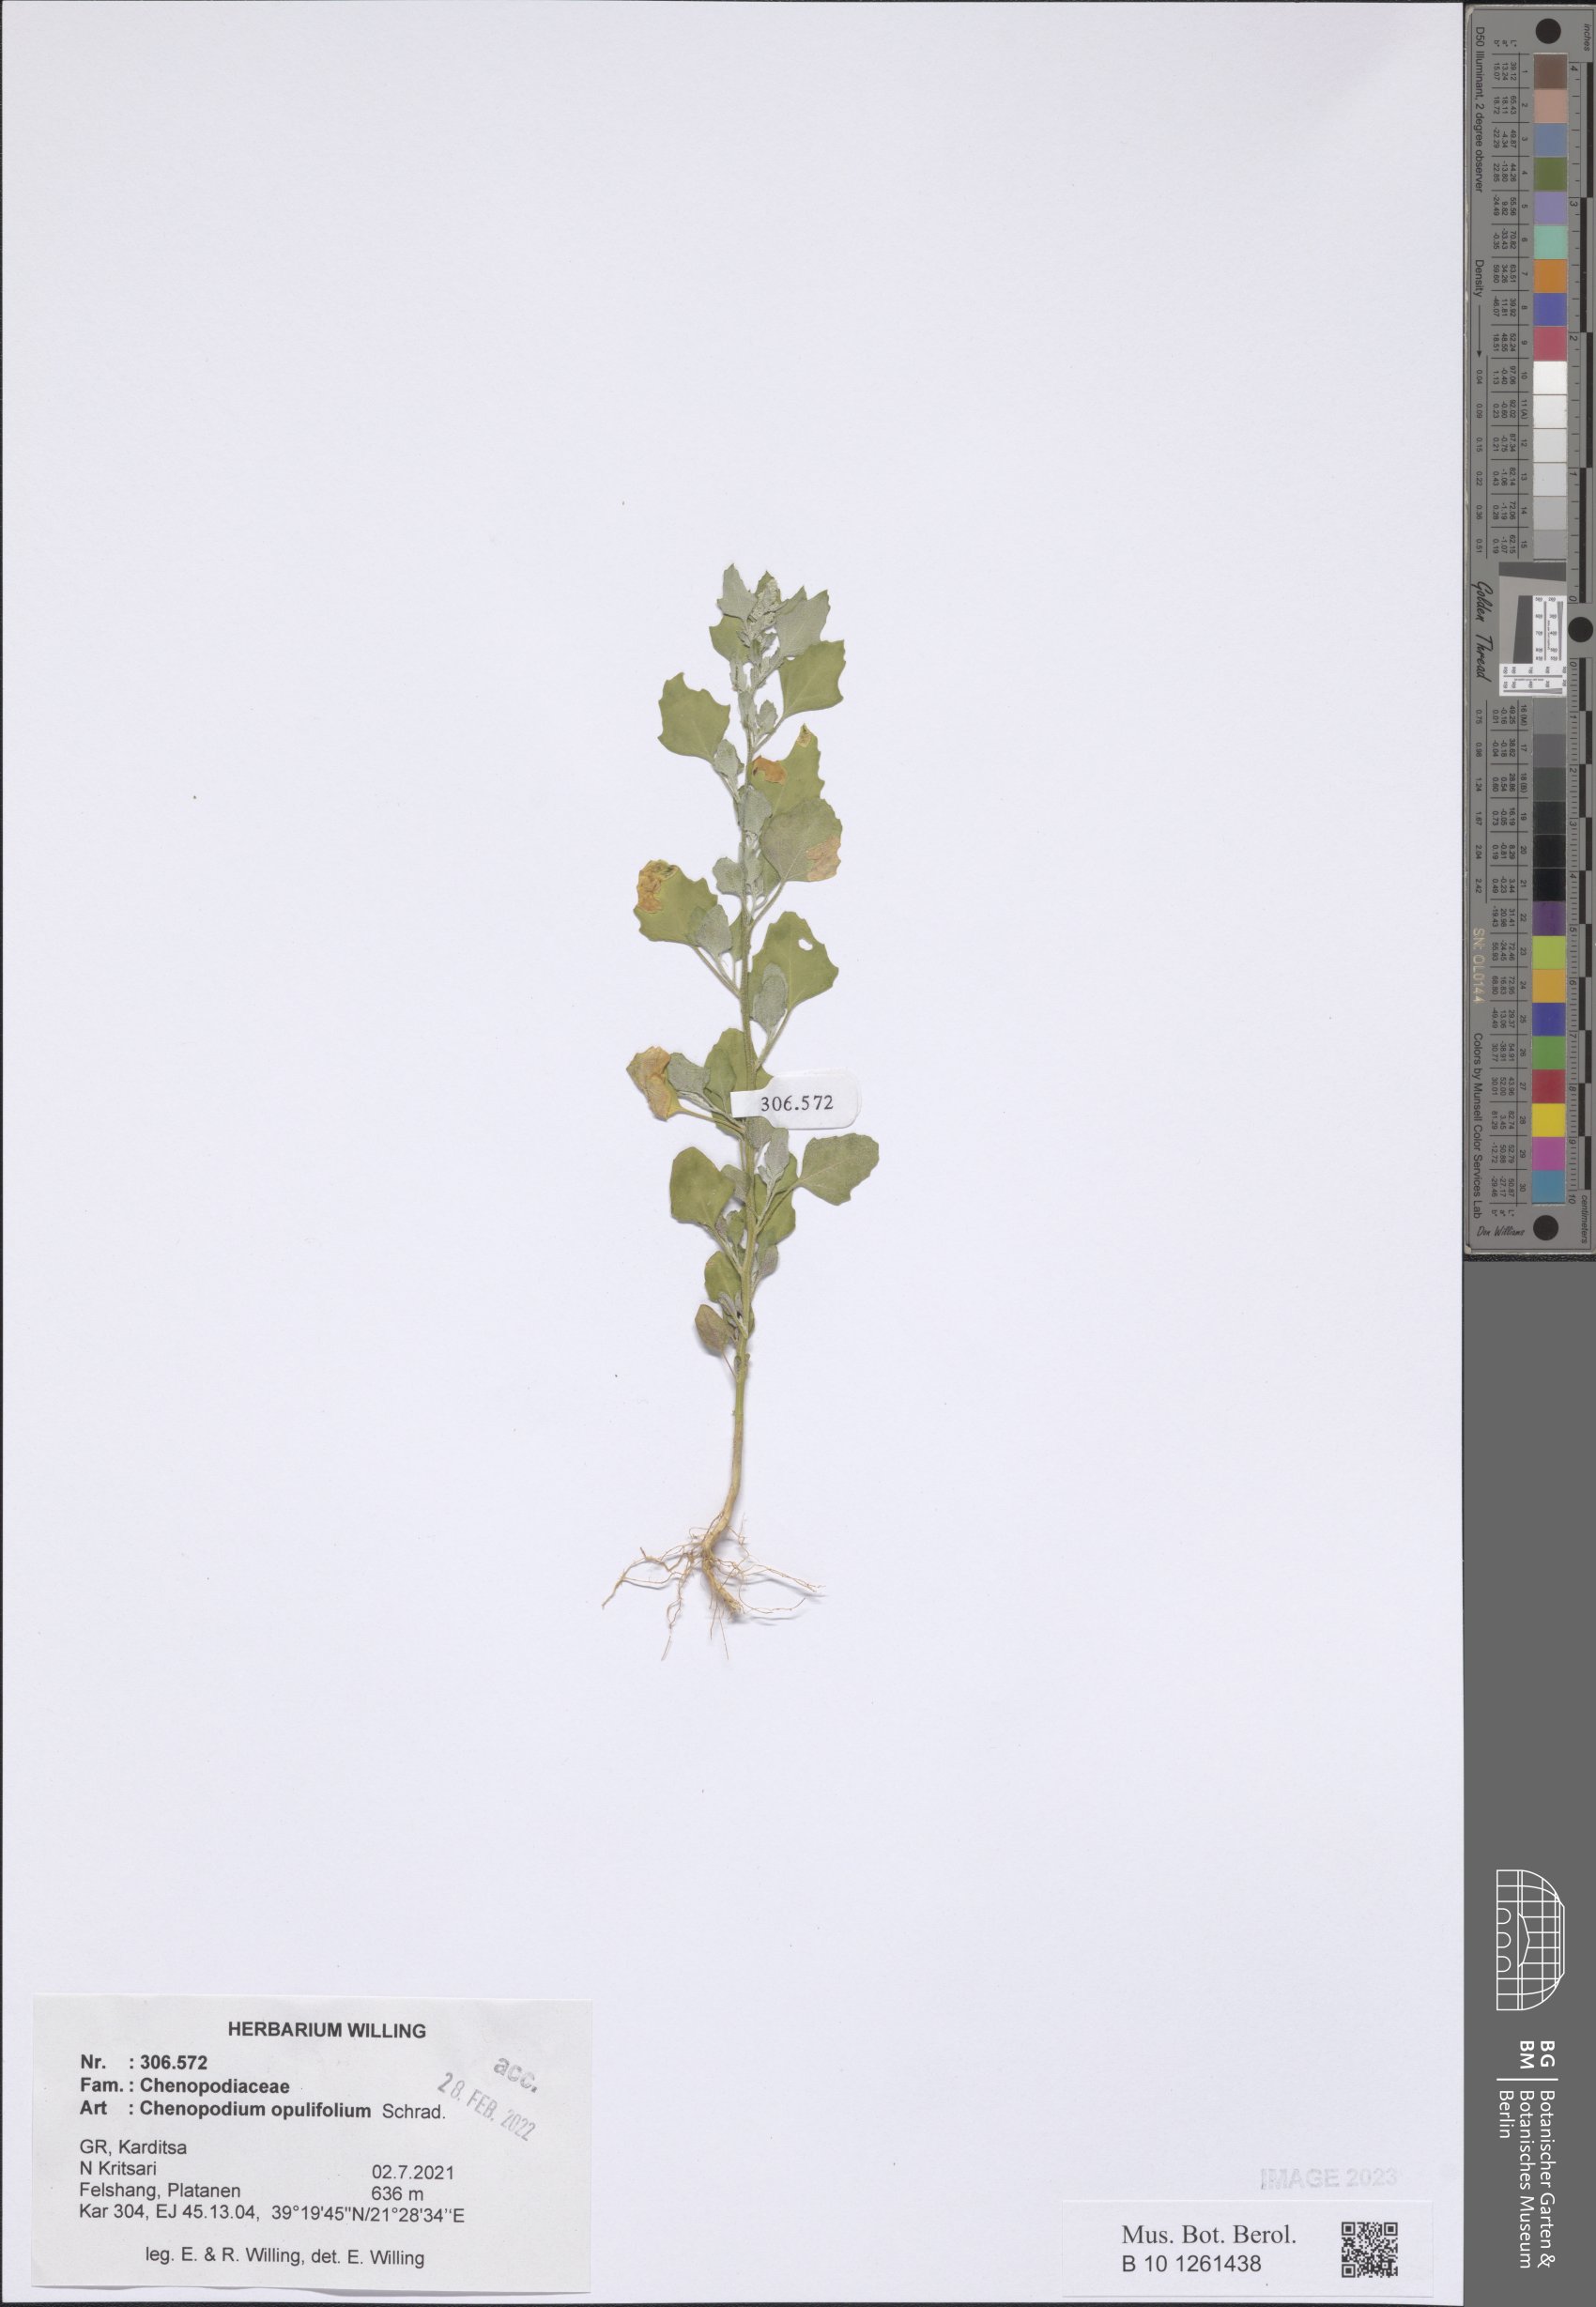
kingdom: Plantae
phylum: Tracheophyta
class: Magnoliopsida
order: Caryophyllales
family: Amaranthaceae
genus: Chenopodium
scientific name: Chenopodium opulifolium
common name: Grey goosefoot
